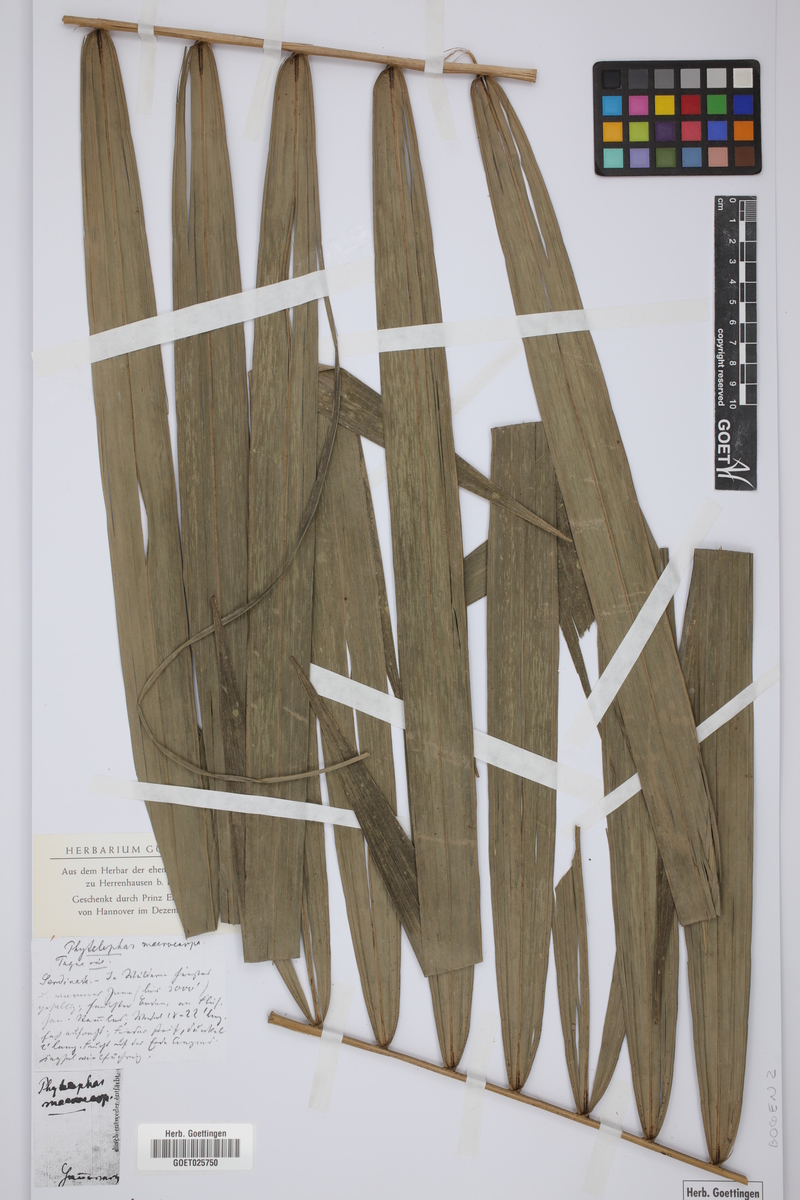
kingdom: Plantae
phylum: Tracheophyta
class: Liliopsida
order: Arecales
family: Arecaceae
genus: Phytelephas
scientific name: Phytelephas macrocarpa
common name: Ivory palm
